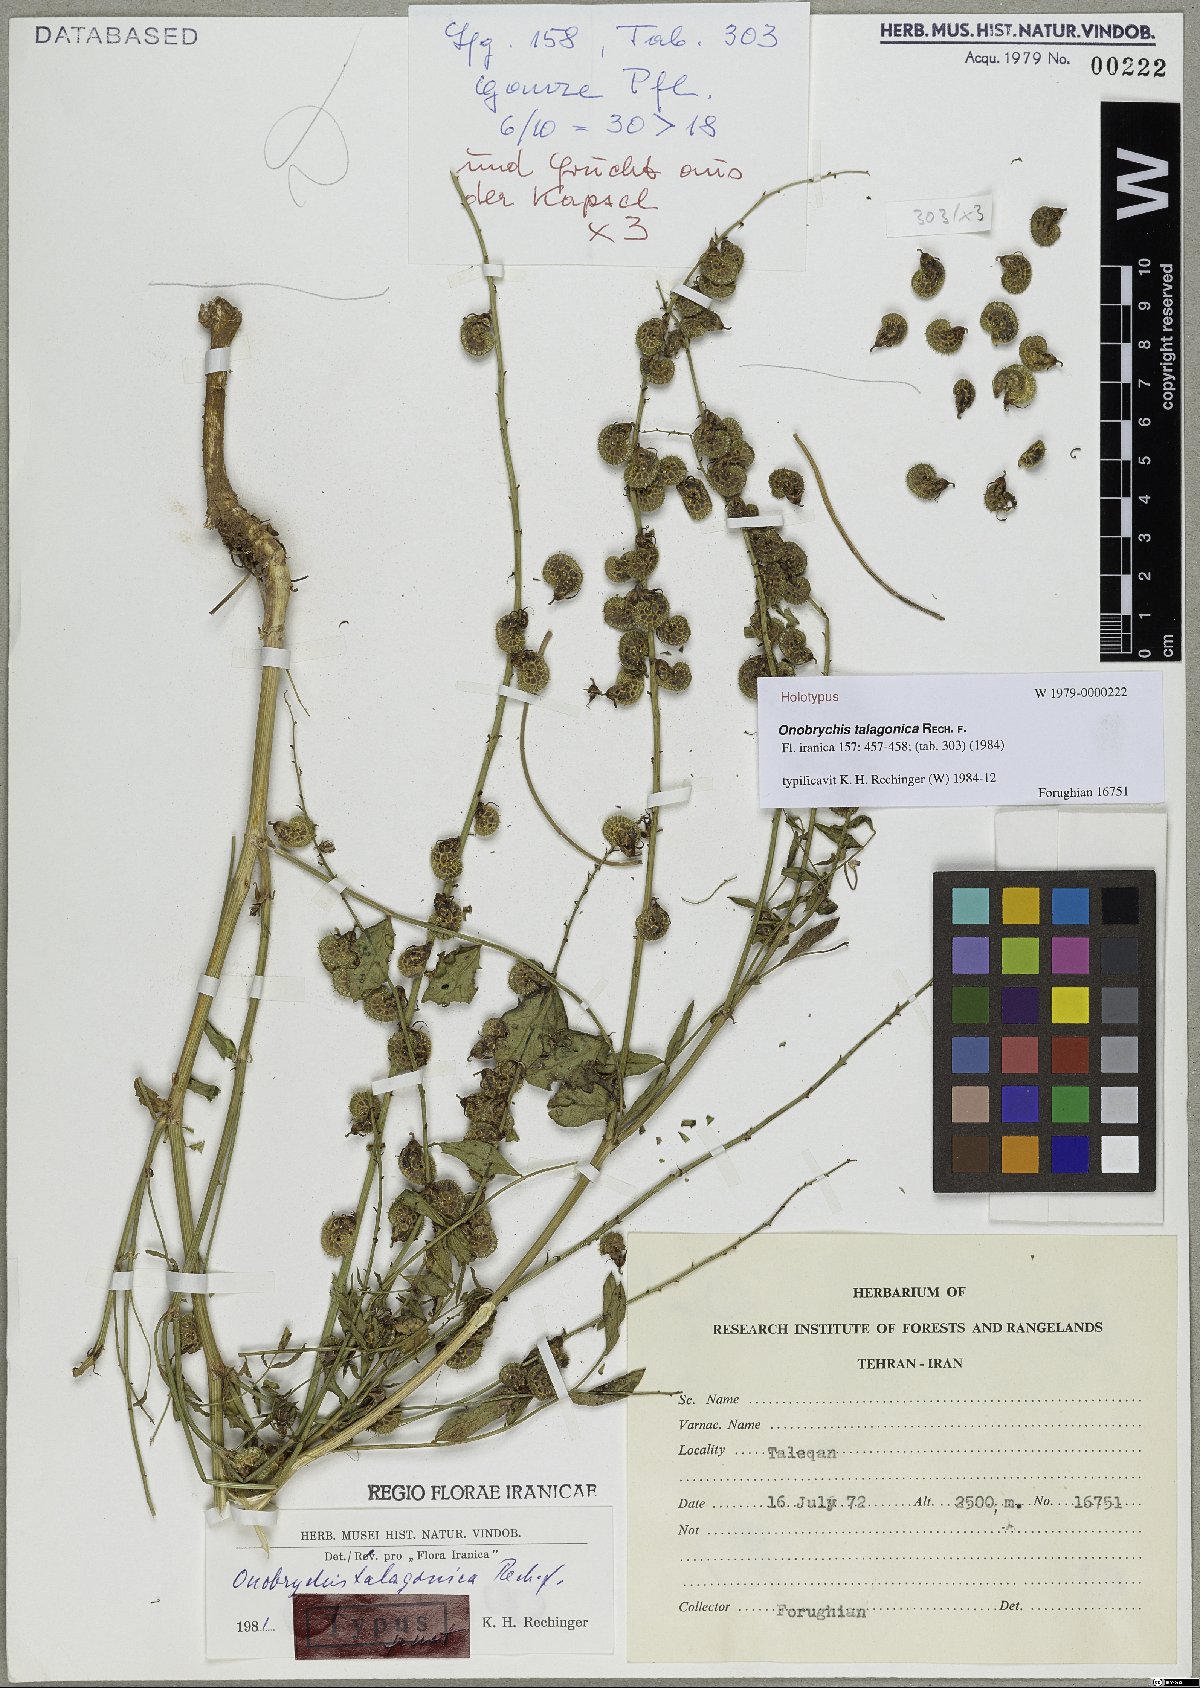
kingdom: Plantae
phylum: Tracheophyta
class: Magnoliopsida
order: Fabales
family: Fabaceae
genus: Onobrychis
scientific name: Onobrychis talagonica
